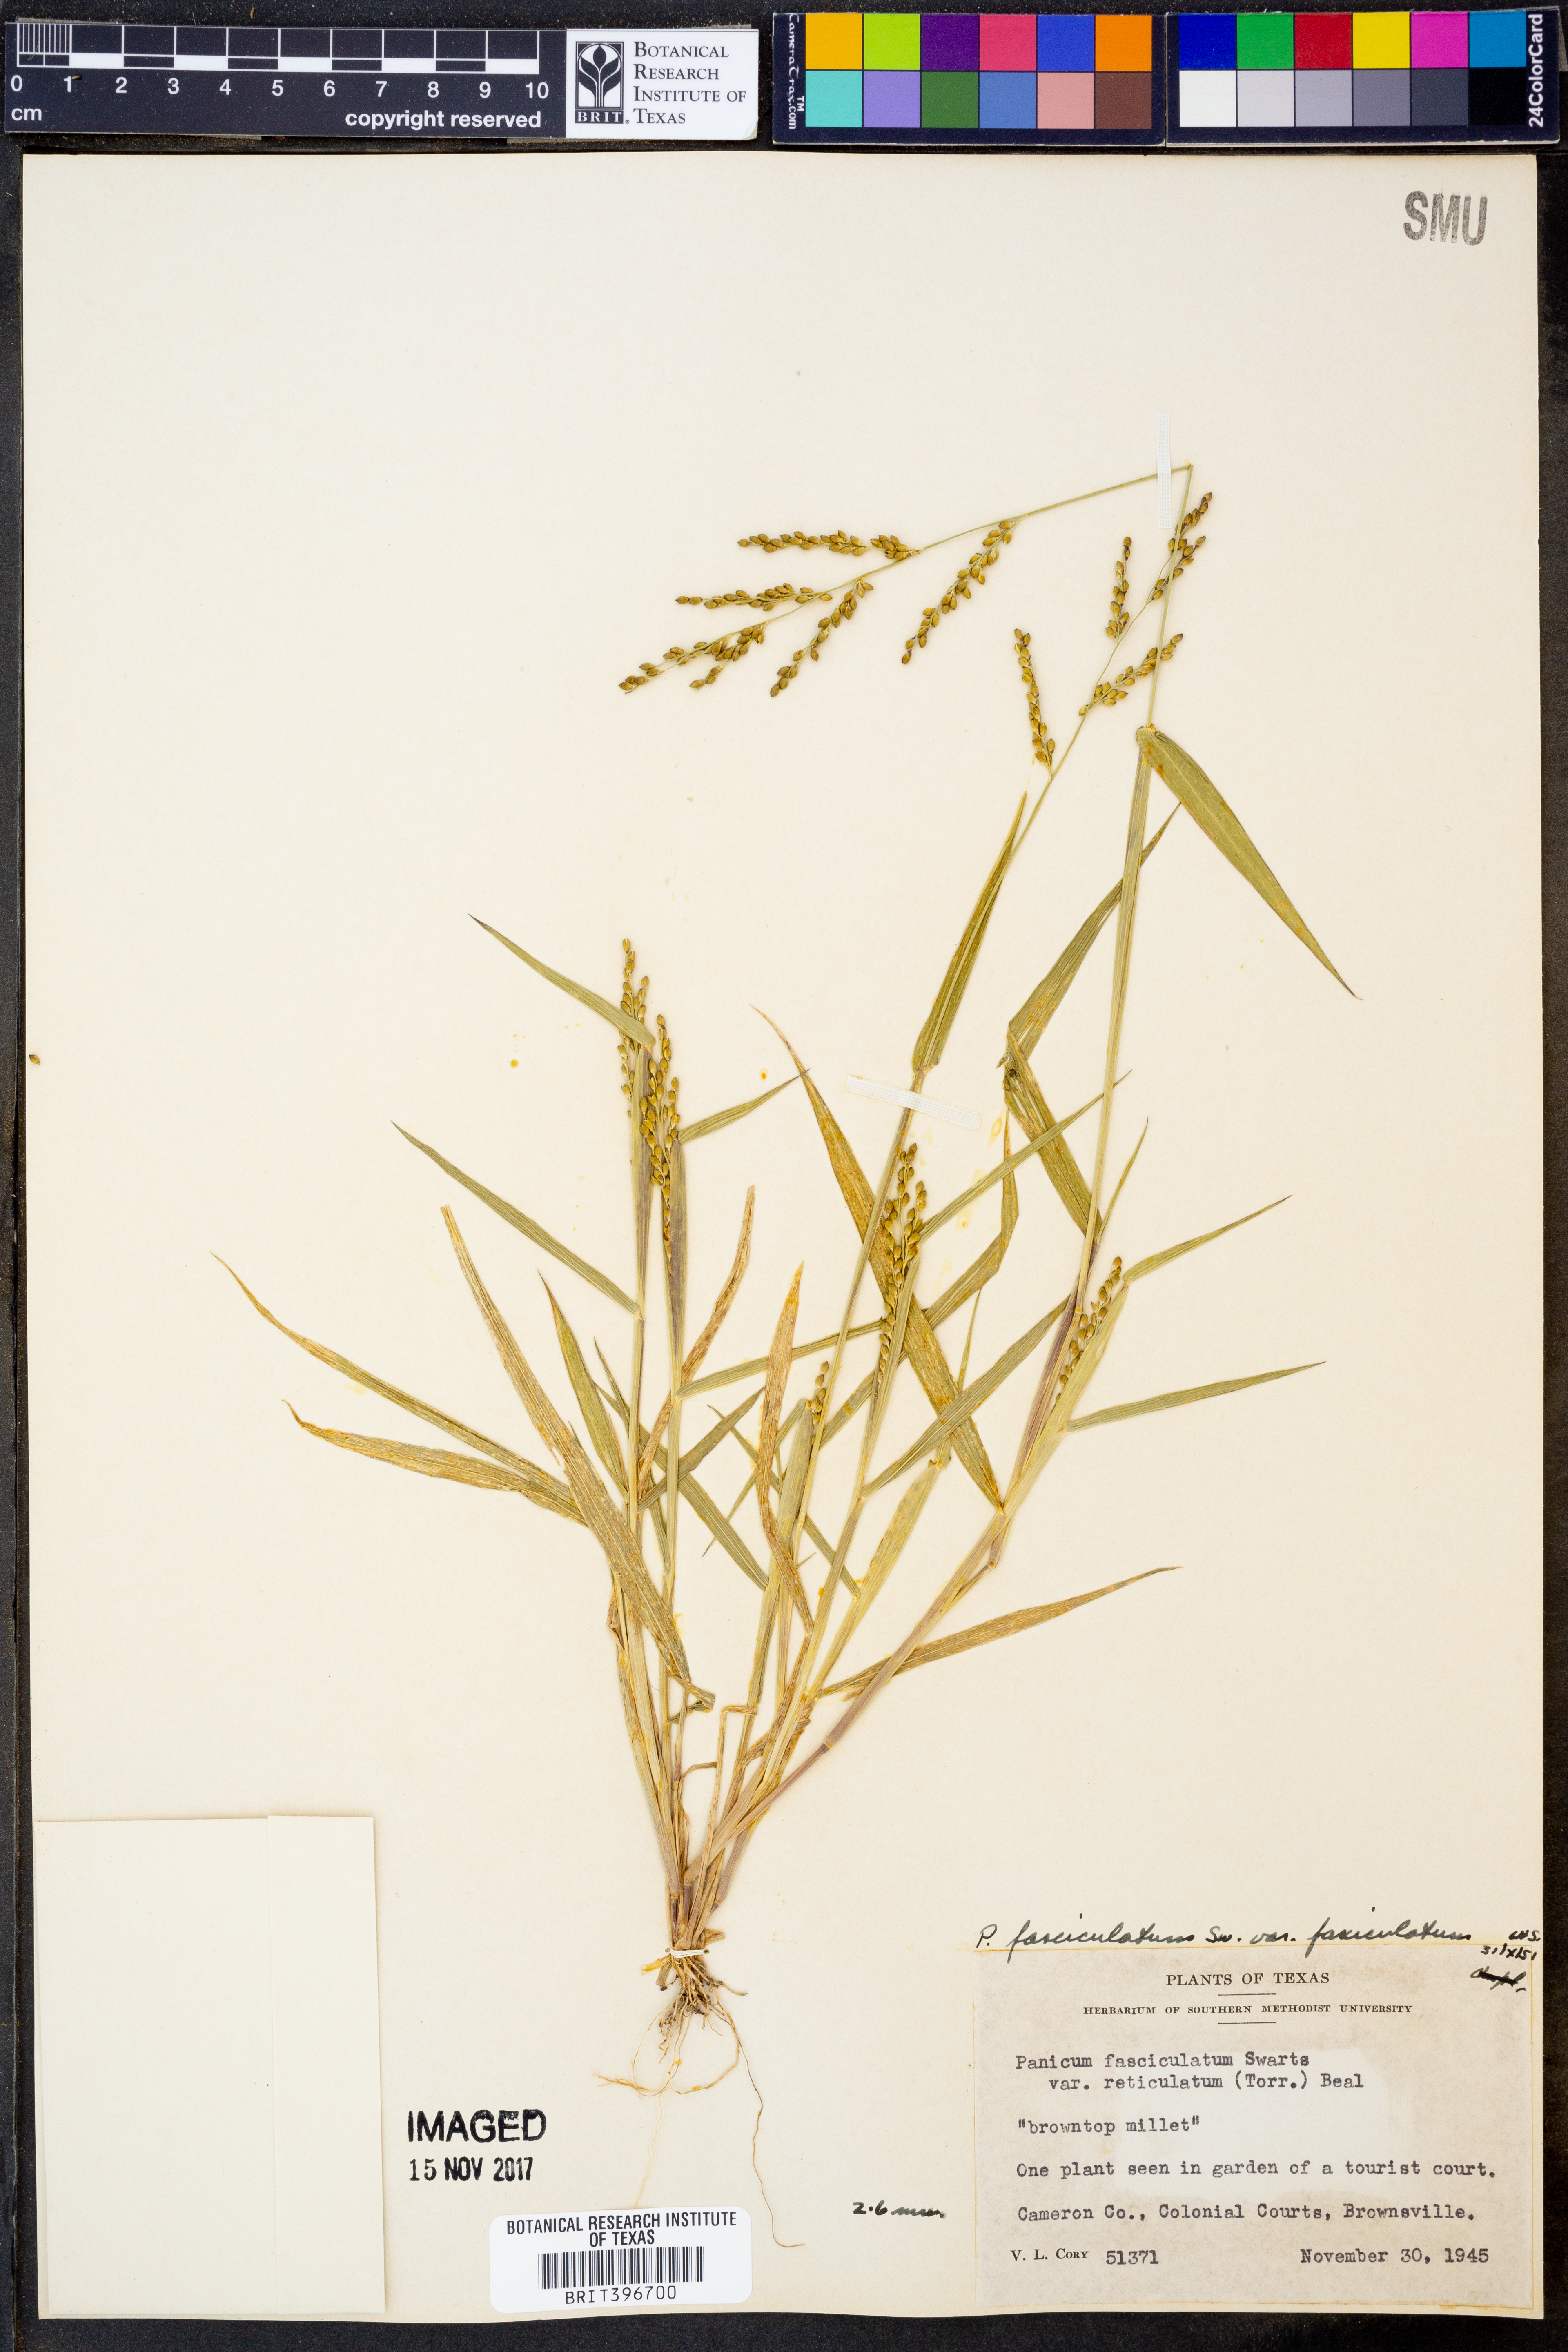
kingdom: Plantae
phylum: Tracheophyta
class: Liliopsida
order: Poales
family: Poaceae
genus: Urochloa
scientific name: Urochloa fusca
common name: Browntop signal grass
